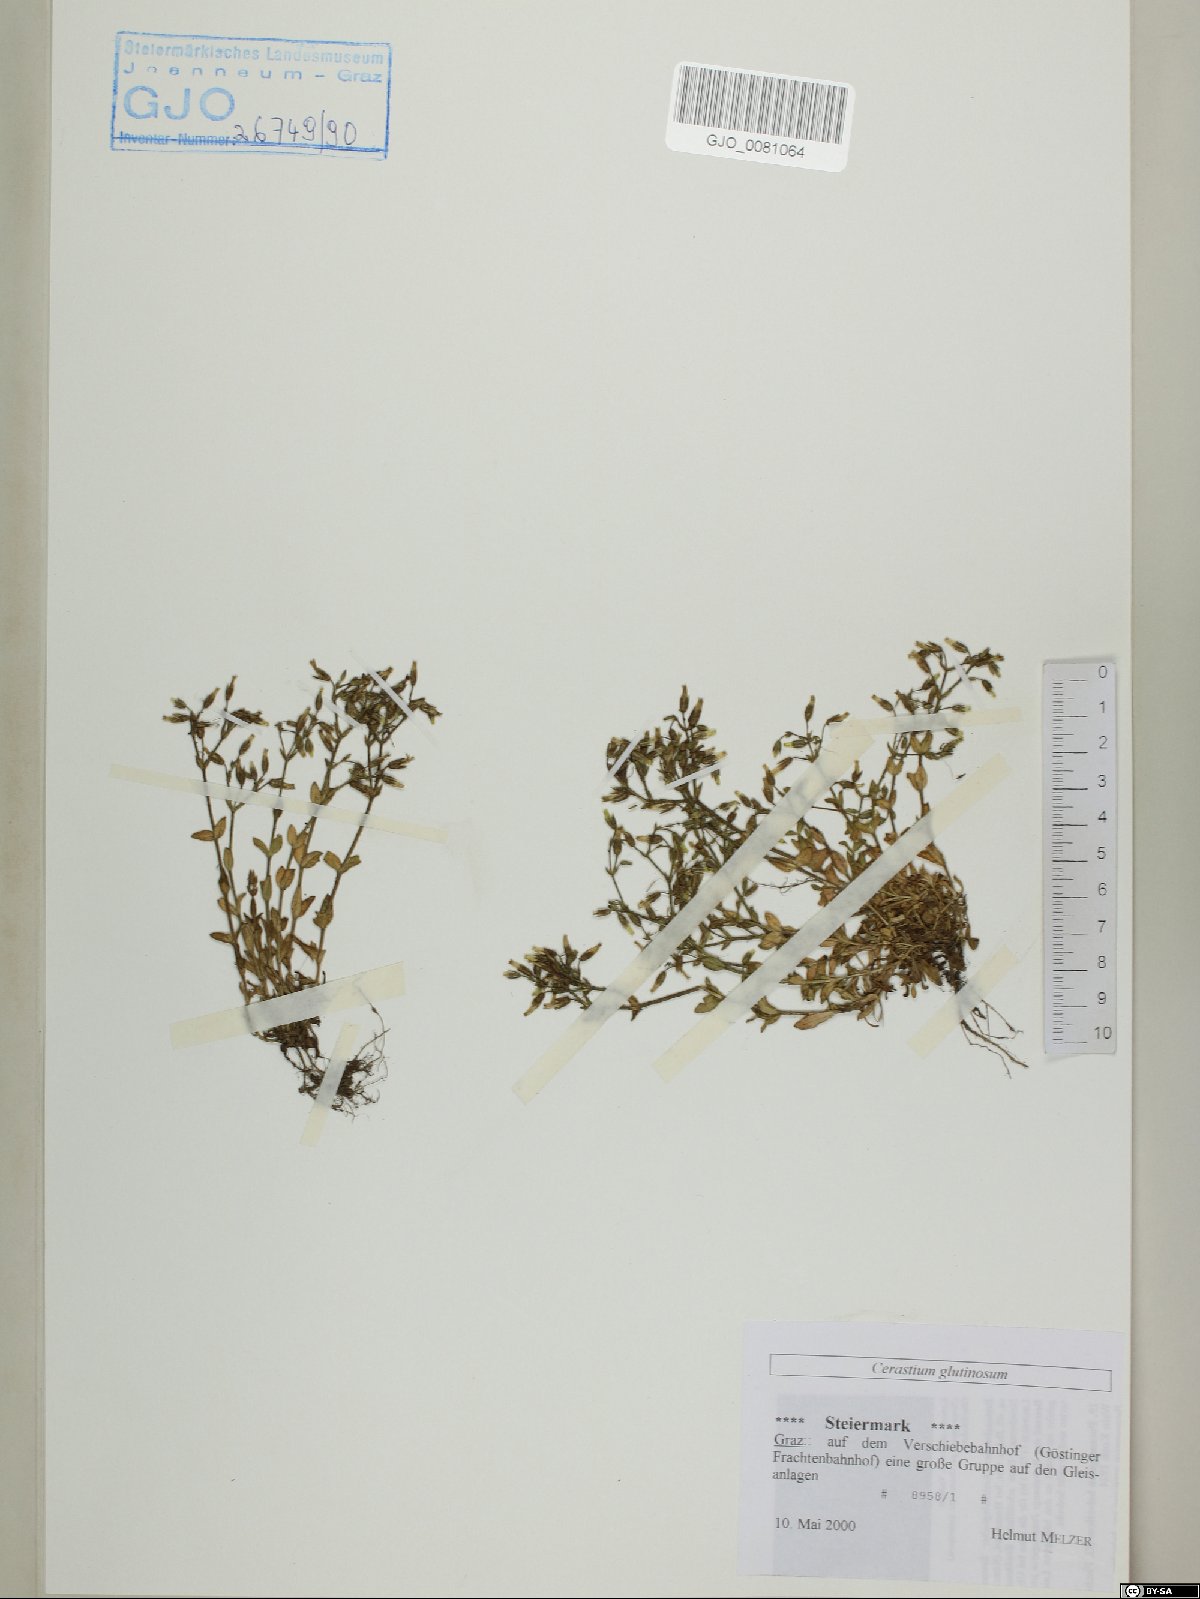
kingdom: Plantae
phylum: Tracheophyta
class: Magnoliopsida
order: Caryophyllales
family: Caryophyllaceae
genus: Cerastium
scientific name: Cerastium glutinosum
